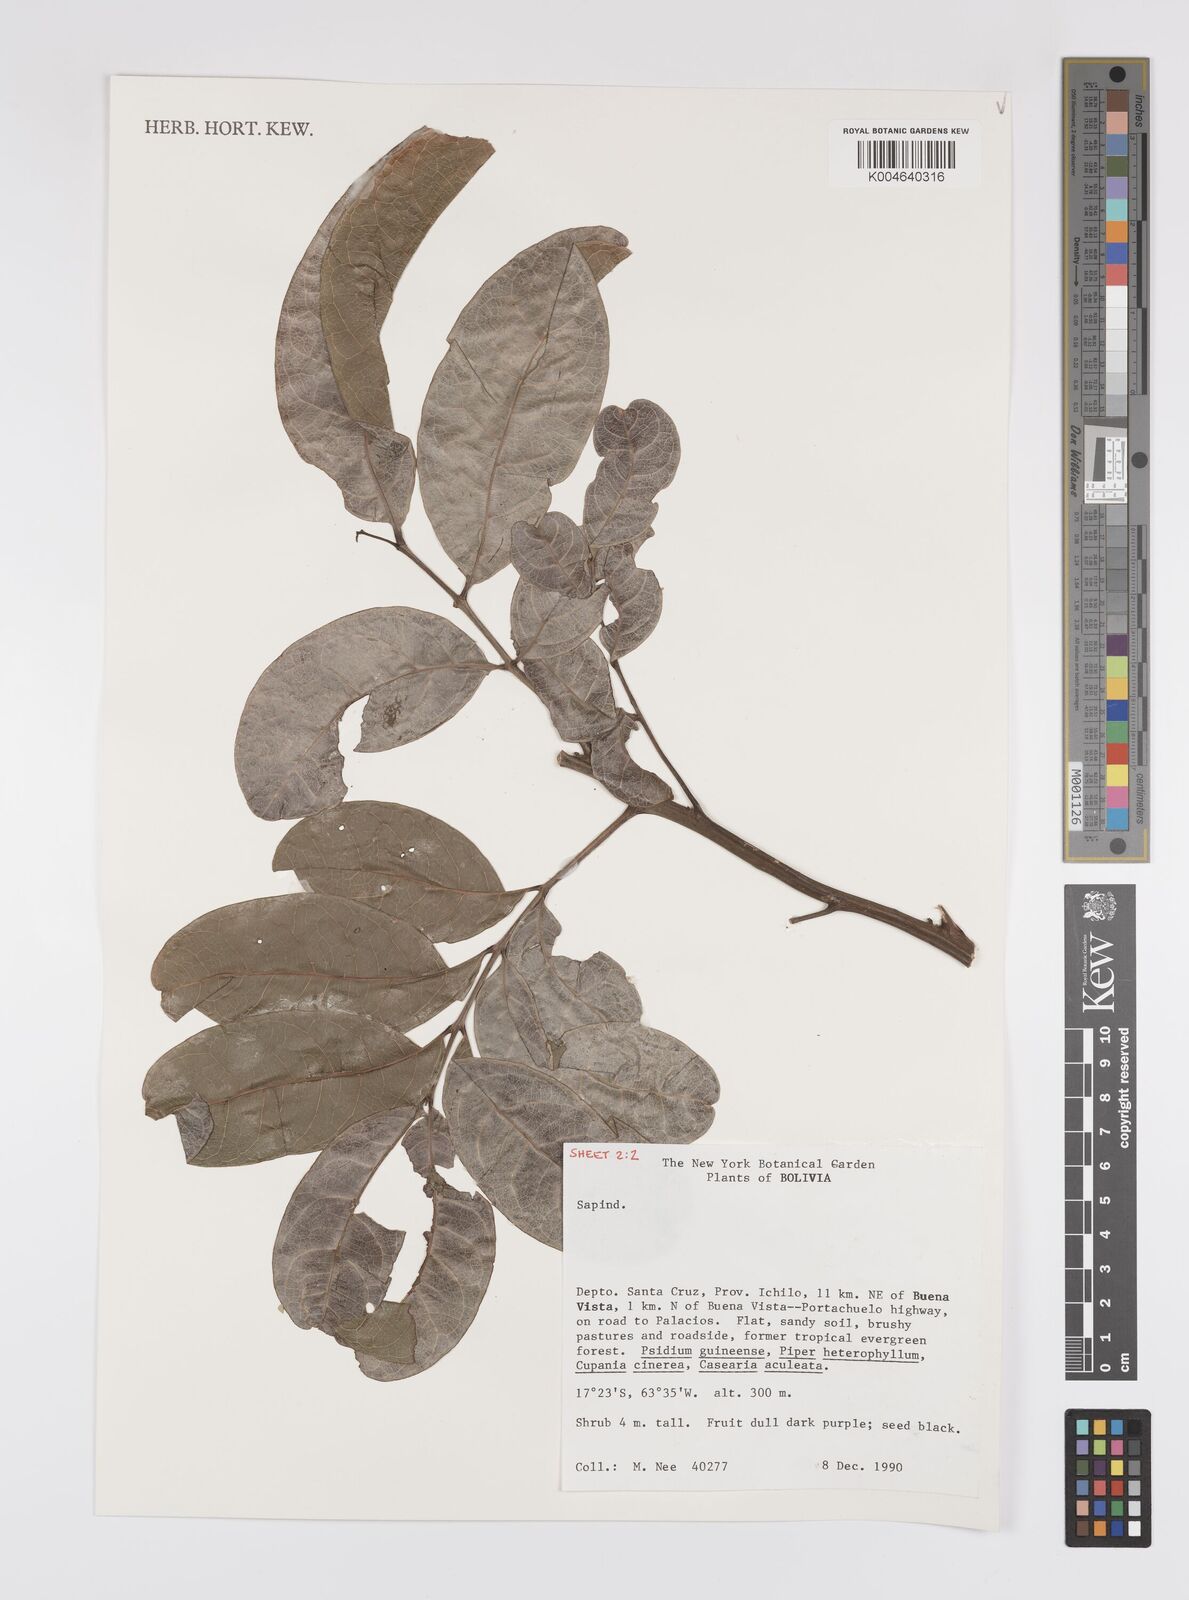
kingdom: Plantae
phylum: Tracheophyta
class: Magnoliopsida
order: Sapindales
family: Sapindaceae
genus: Cupania
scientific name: Cupania
